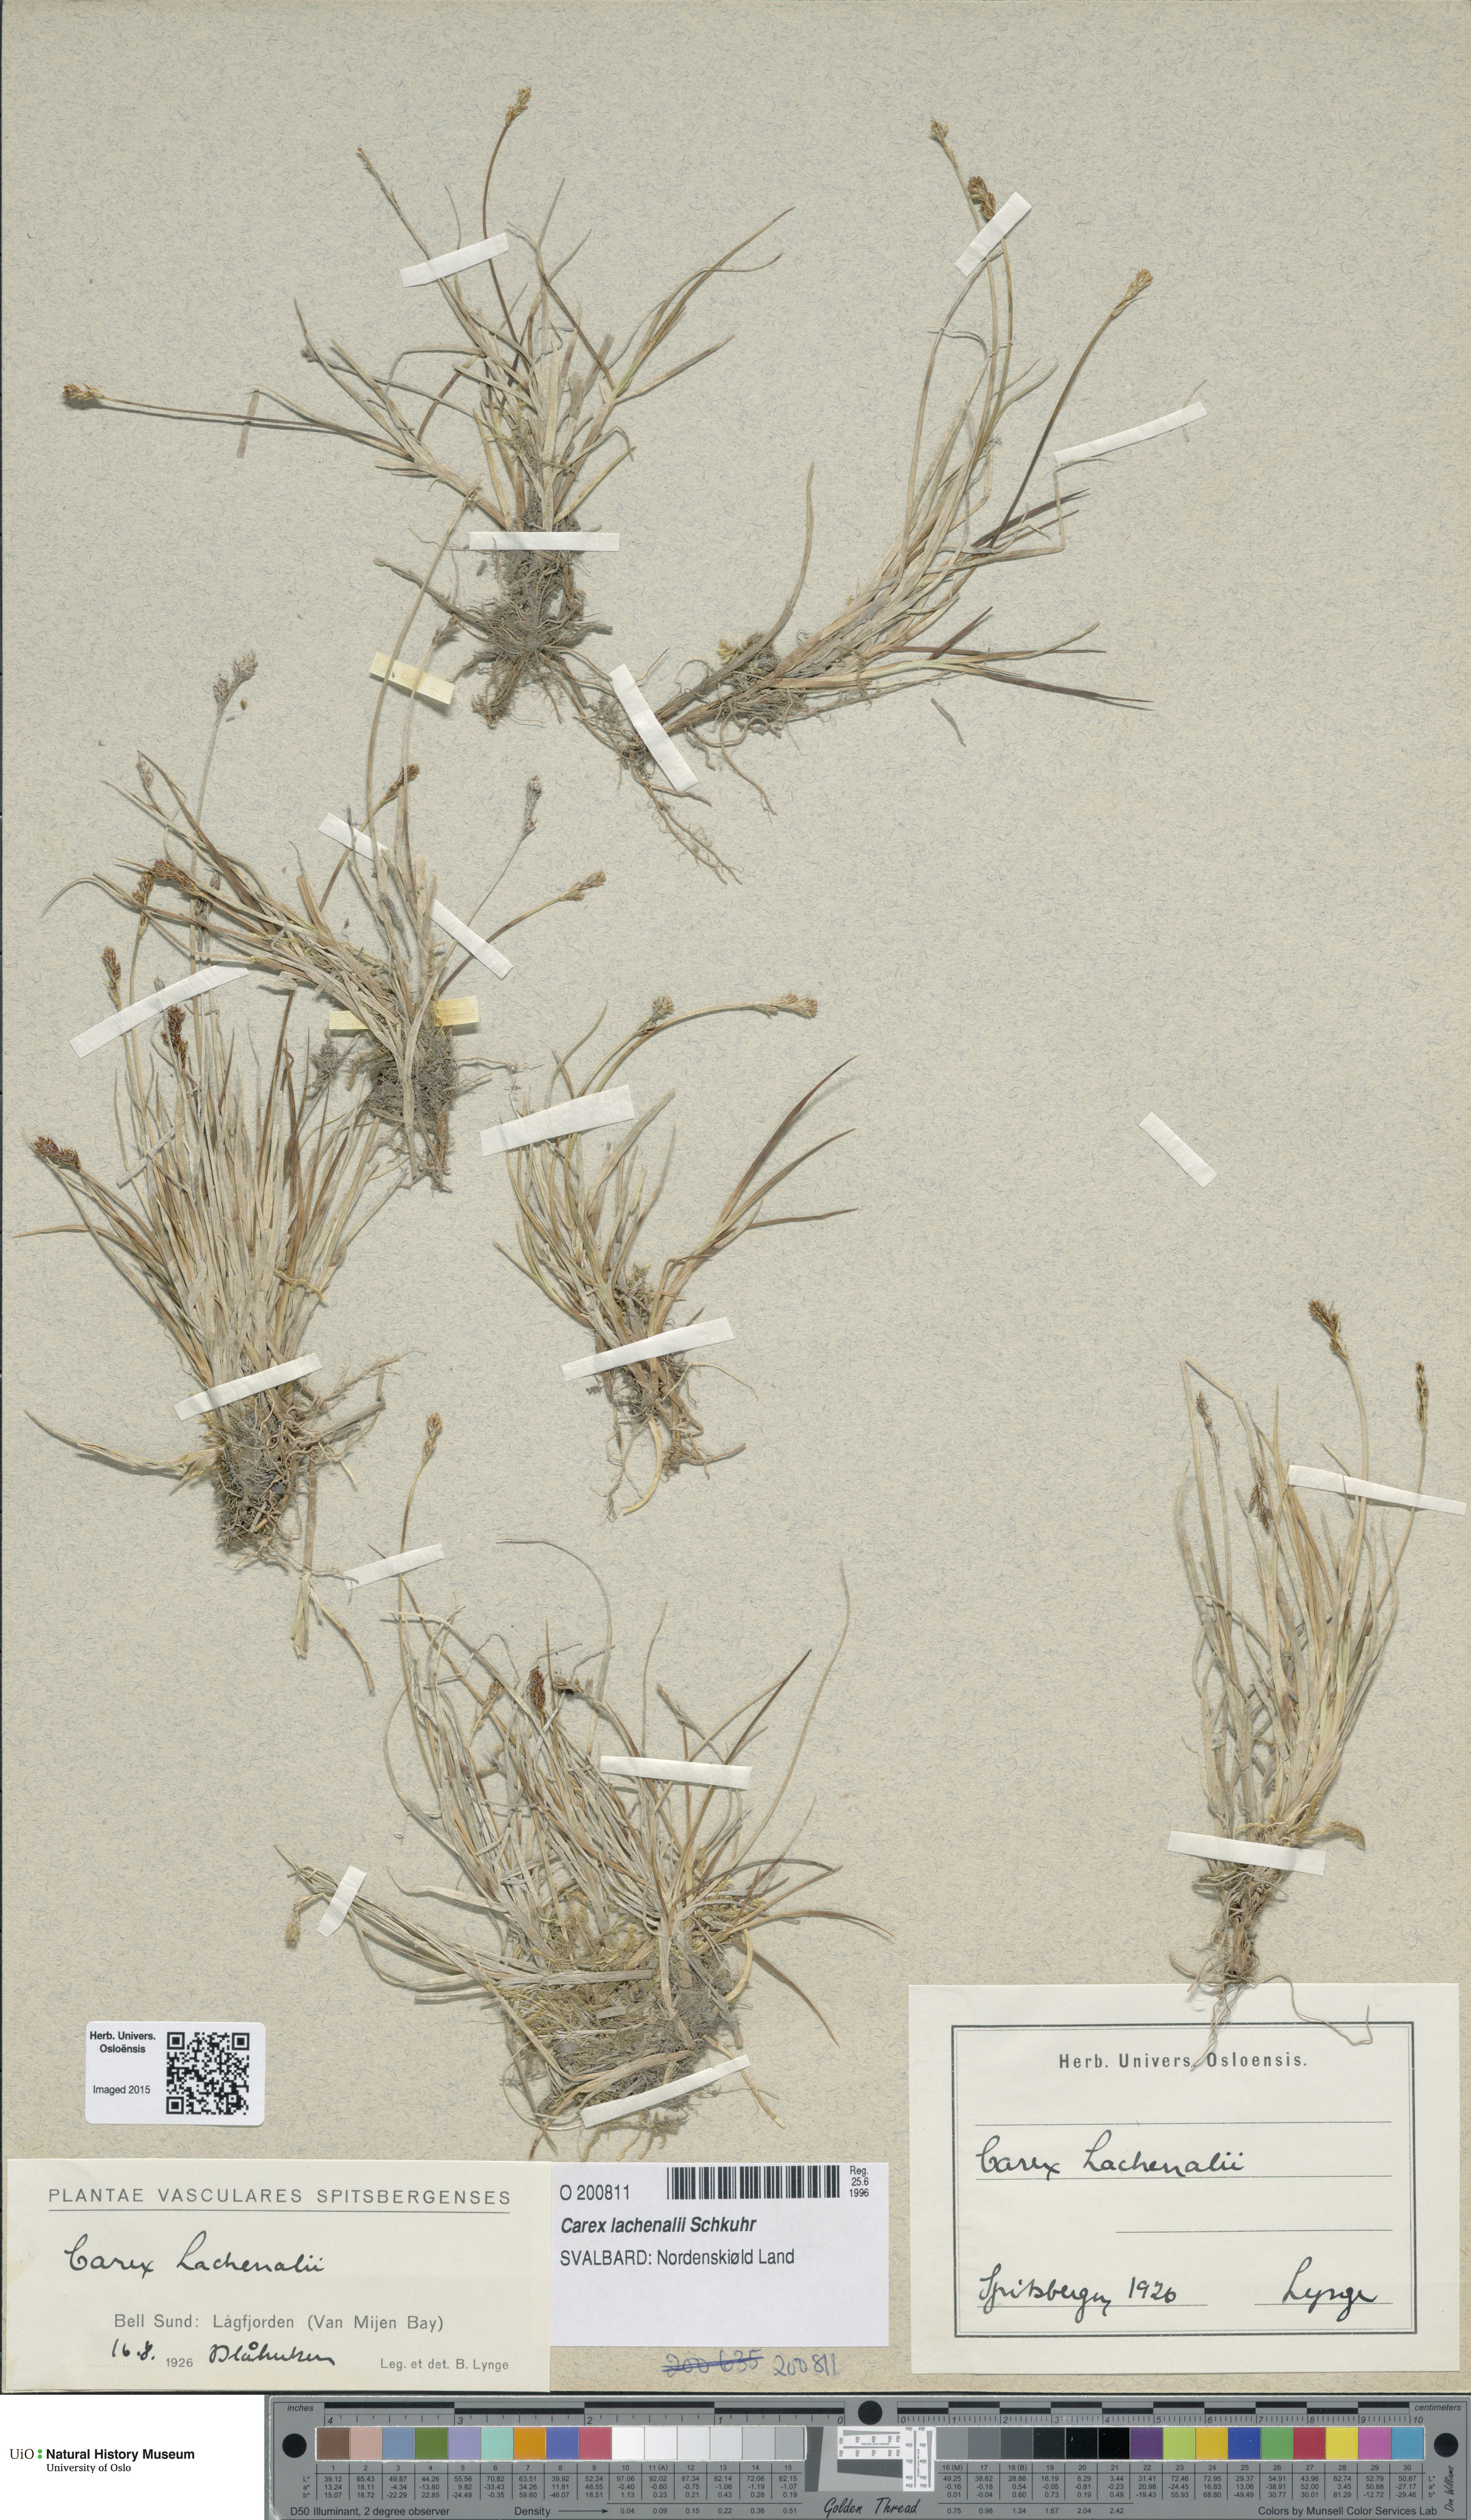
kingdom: Plantae
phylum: Tracheophyta
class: Liliopsida
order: Poales
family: Cyperaceae
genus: Carex
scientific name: Carex lachenalii
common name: Hare's-foot sedge
